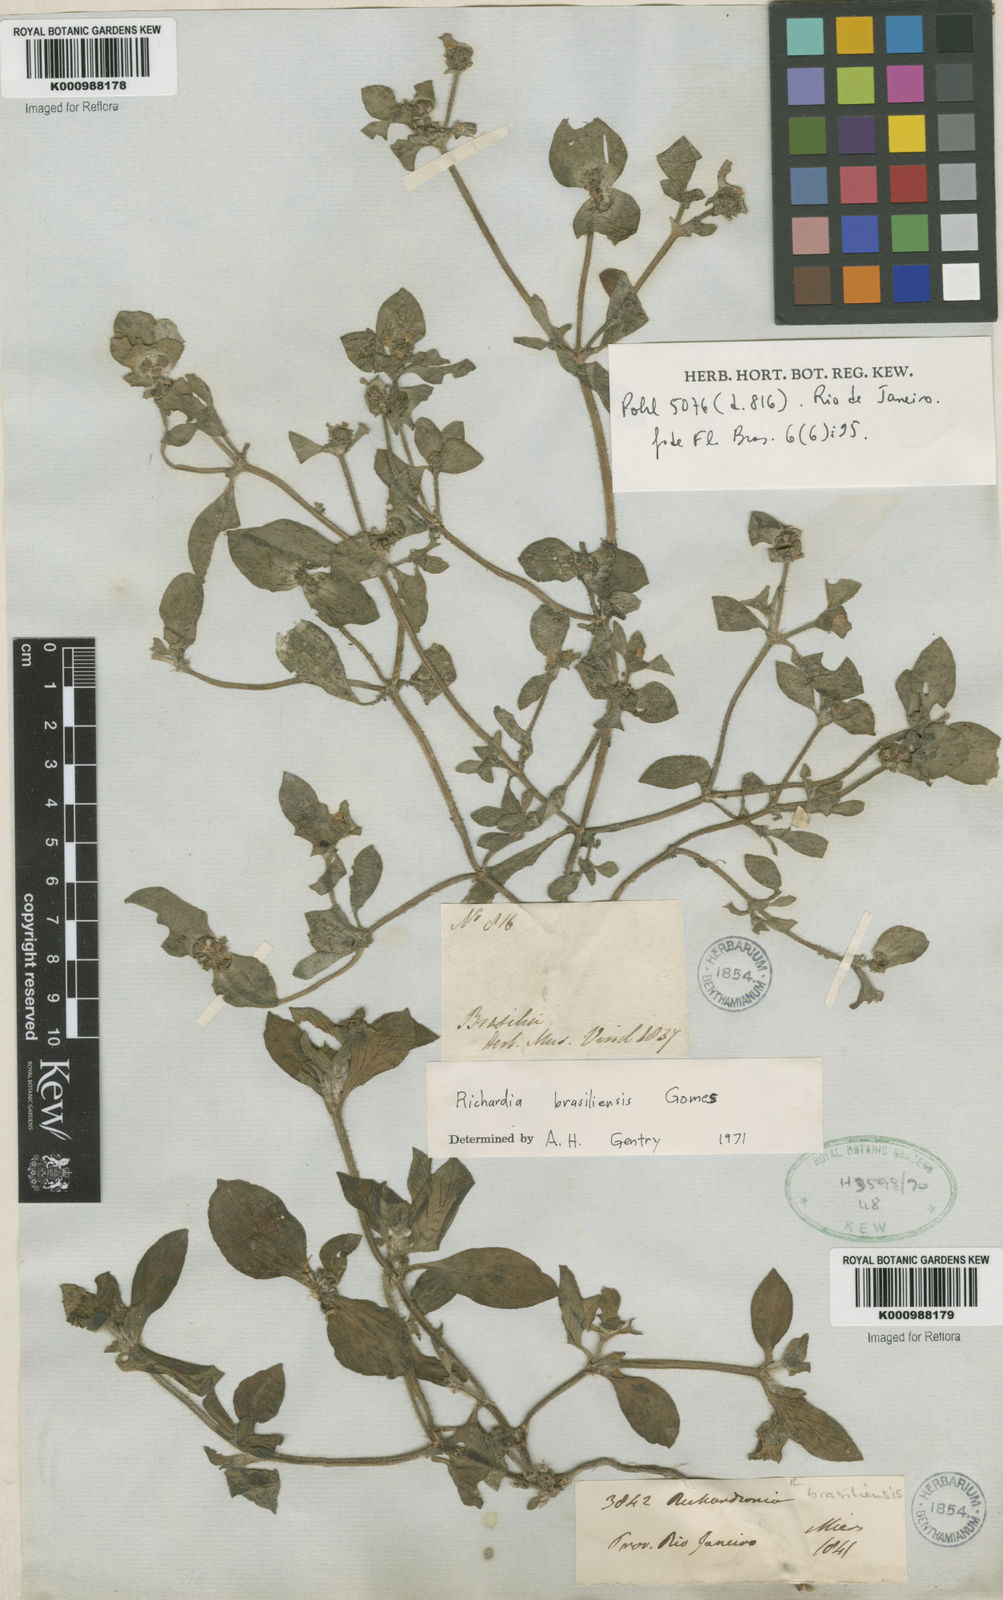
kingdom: Plantae
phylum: Tracheophyta
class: Magnoliopsida
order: Gentianales
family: Rubiaceae
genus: Richardia
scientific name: Richardia brasiliensis
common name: Tropical mexican clover
